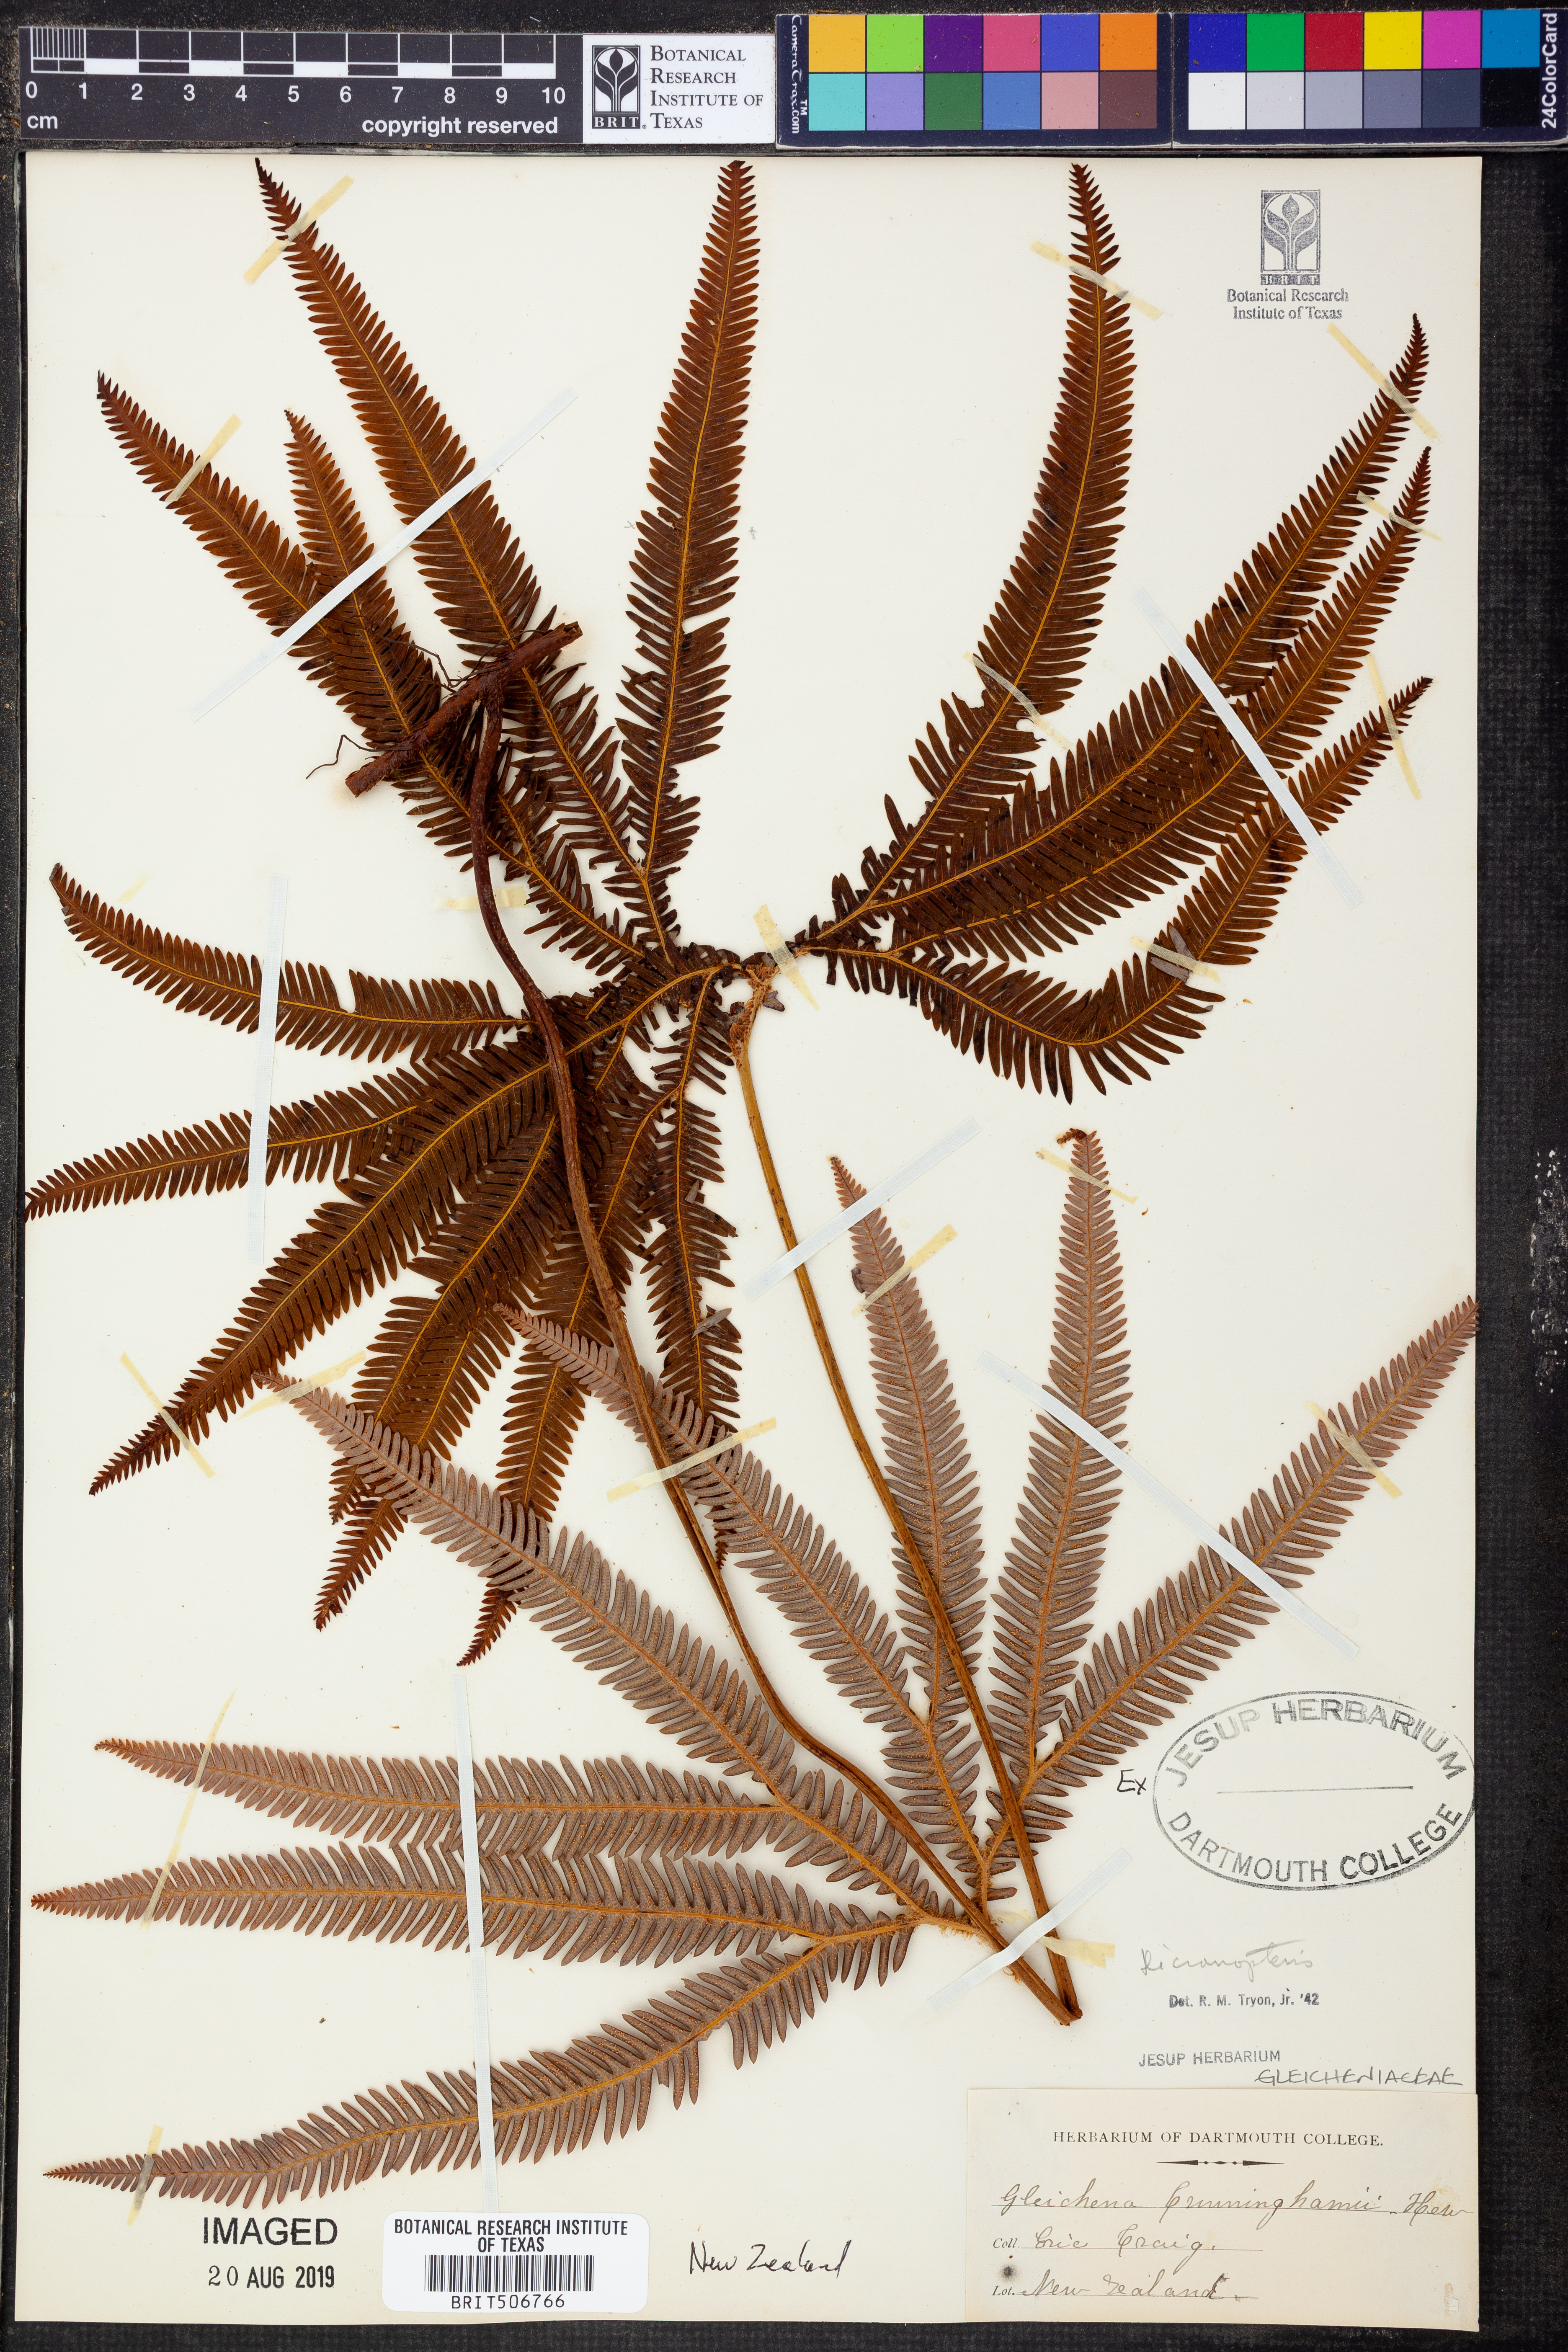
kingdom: Plantae
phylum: Tracheophyta
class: Polypodiopsida
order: Gleicheniales
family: Gleicheniaceae
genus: Dicranopteris
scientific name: Dicranopteris
